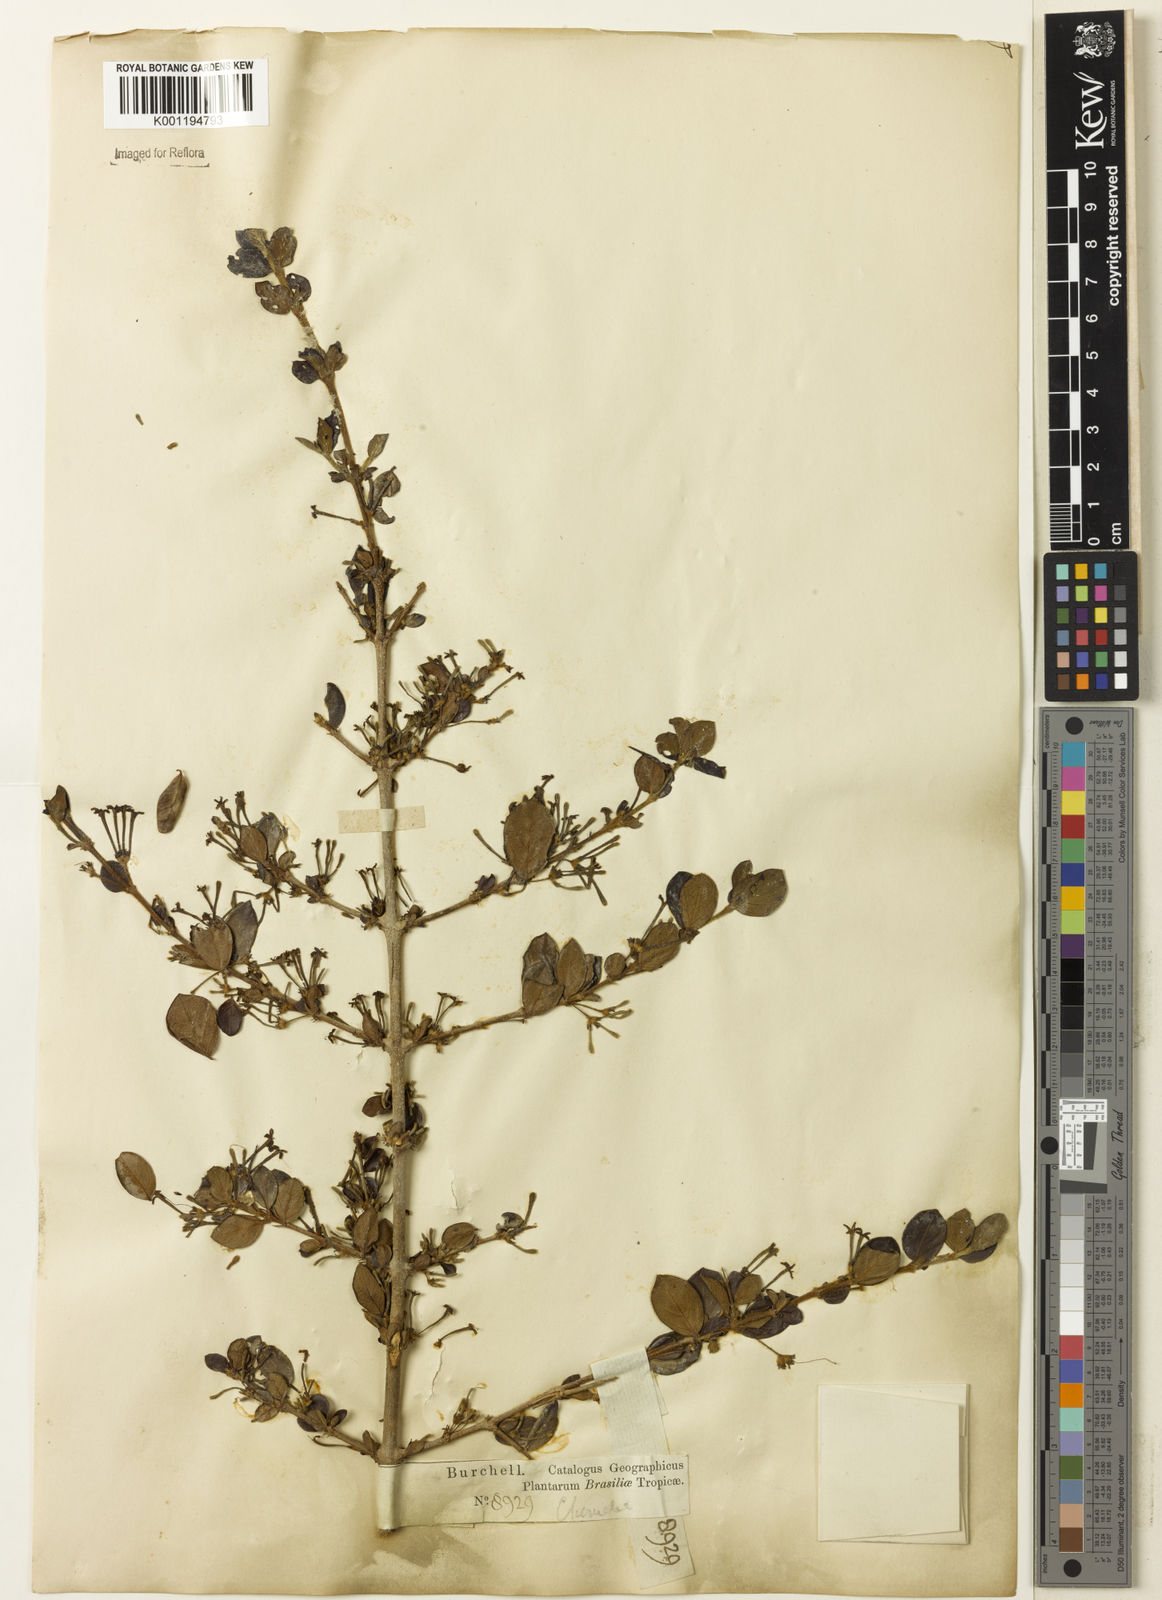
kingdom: Plantae
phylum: Tracheophyta
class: Magnoliopsida
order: Gentianales
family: Rubiaceae
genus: Chomelia
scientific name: Chomelia fasciculata
